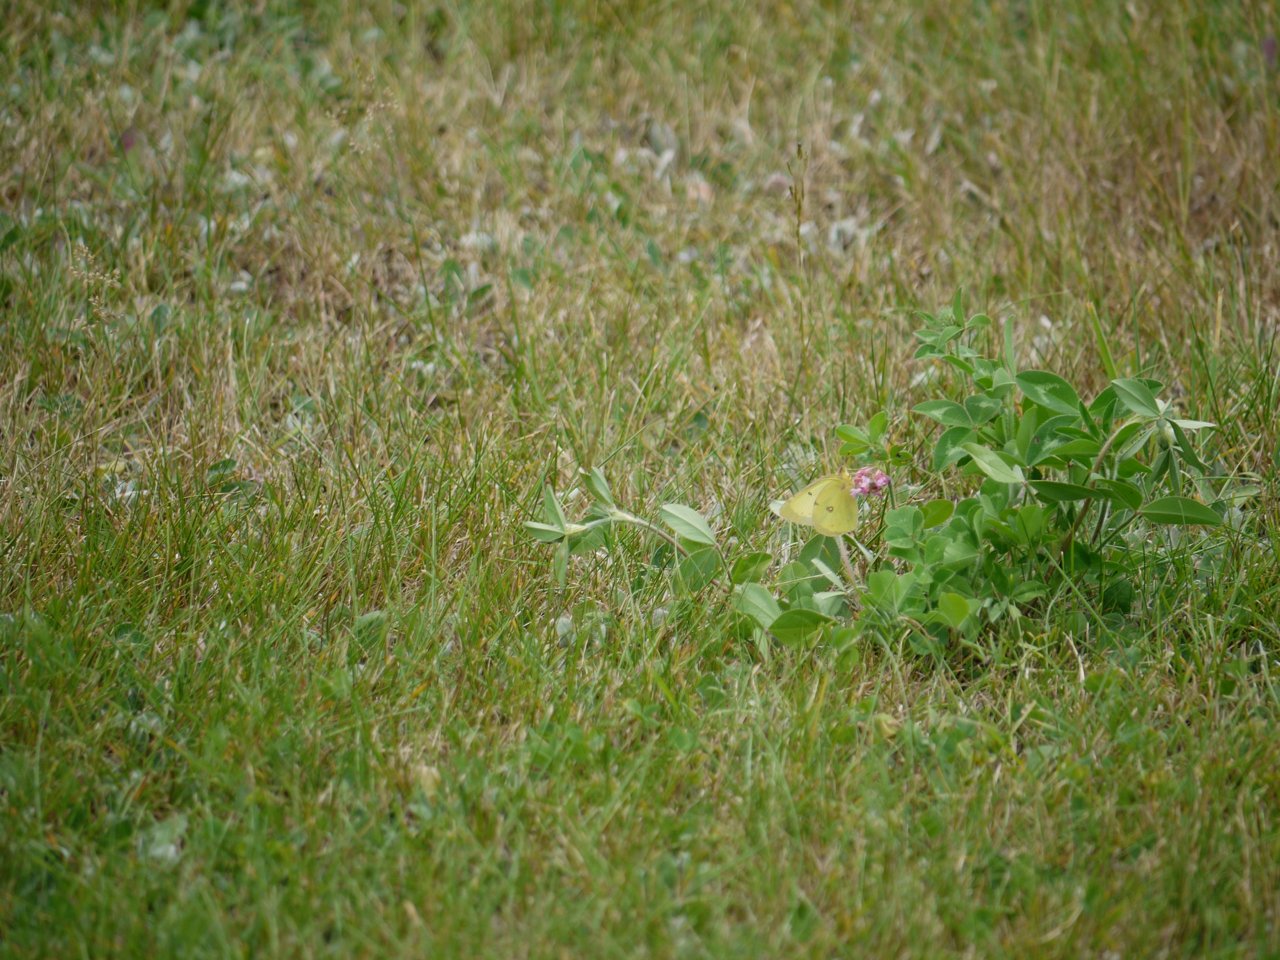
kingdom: Animalia
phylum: Arthropoda
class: Insecta
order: Lepidoptera
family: Pieridae
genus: Colias
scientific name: Colias philodice
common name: Clouded Sulphur
